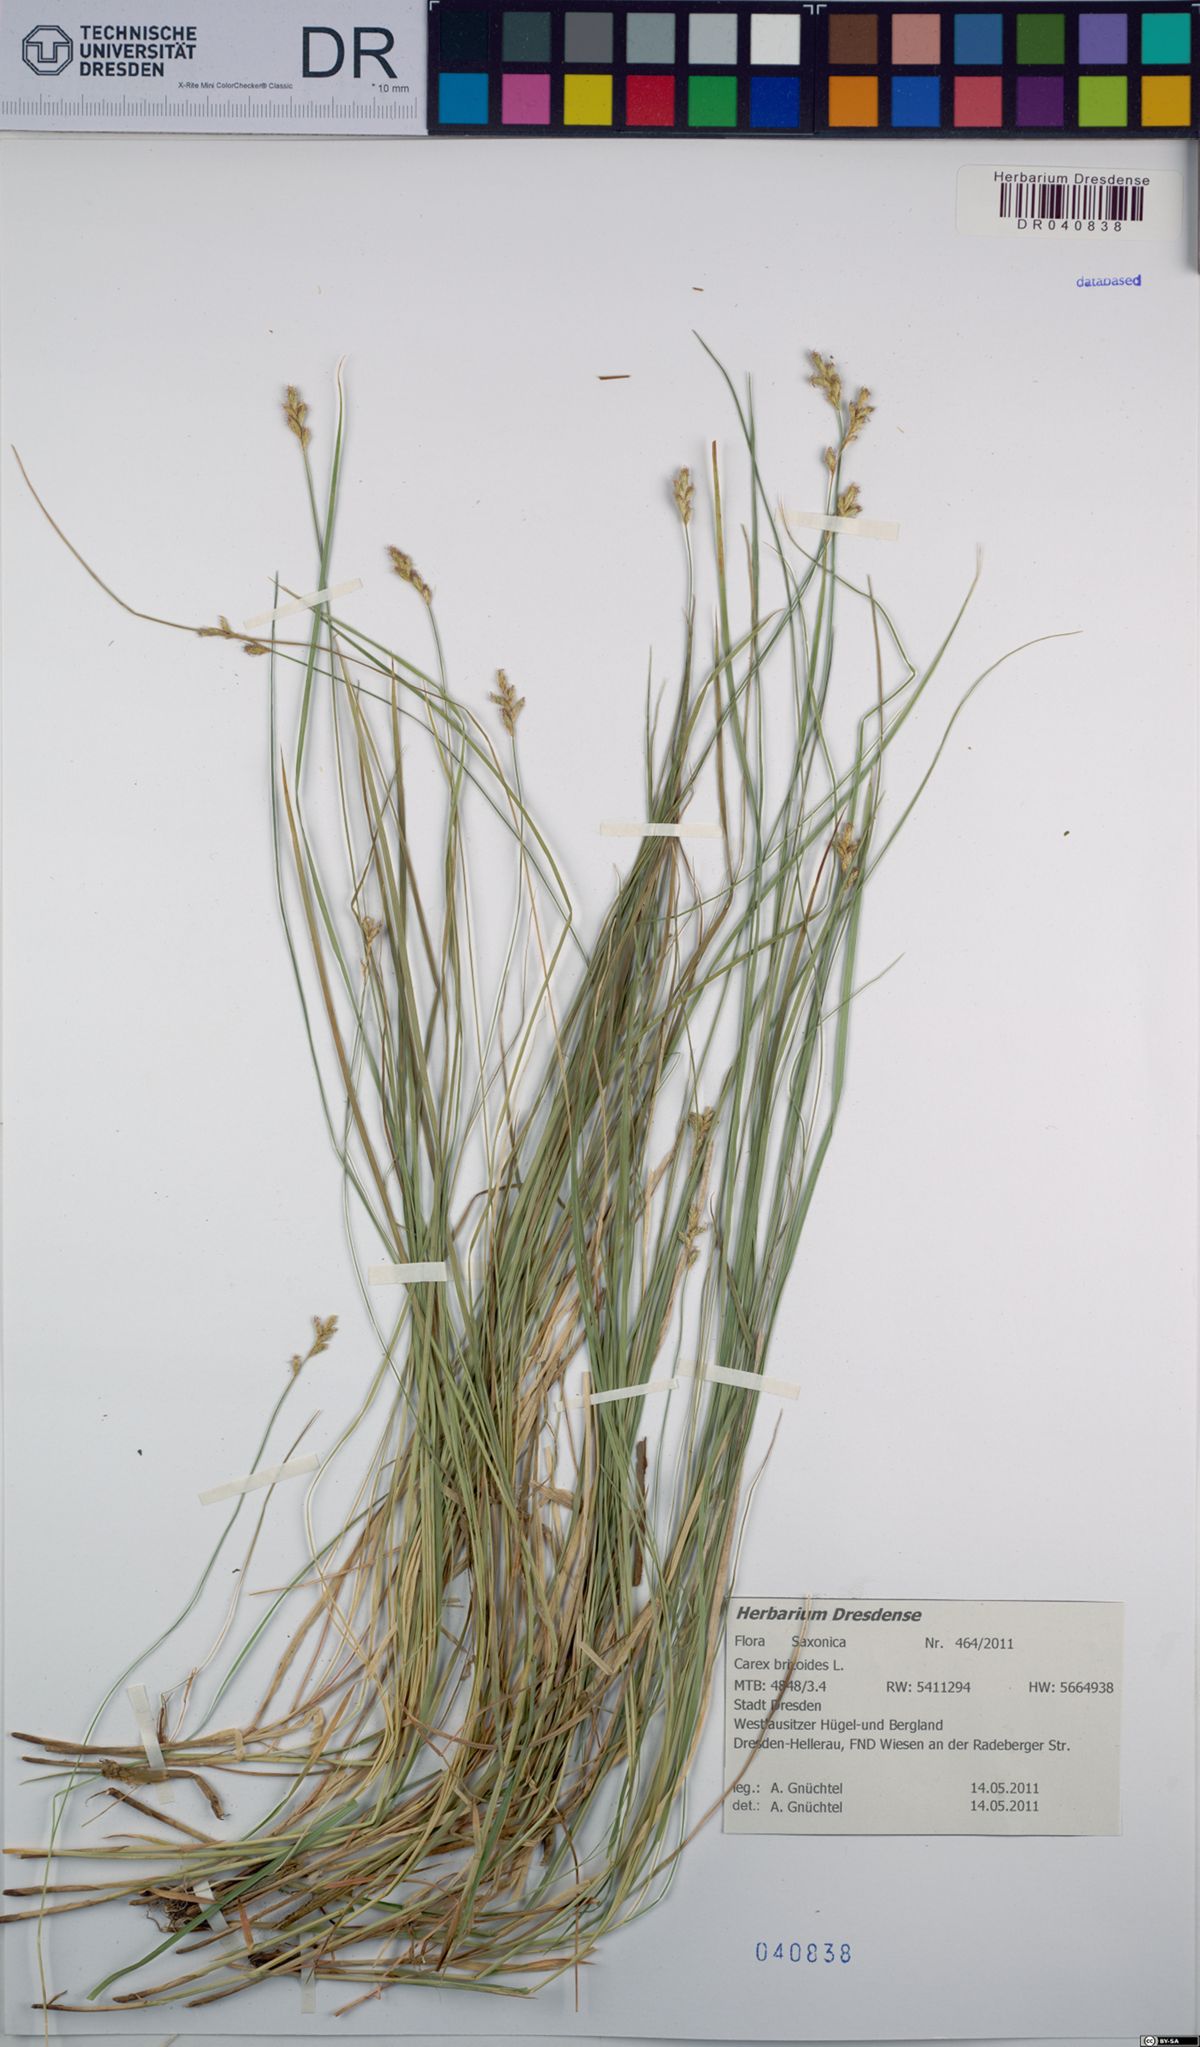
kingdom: Plantae
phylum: Tracheophyta
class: Liliopsida
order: Poales
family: Cyperaceae
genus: Carex
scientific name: Carex brizoides
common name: Quaking-grass sedge
